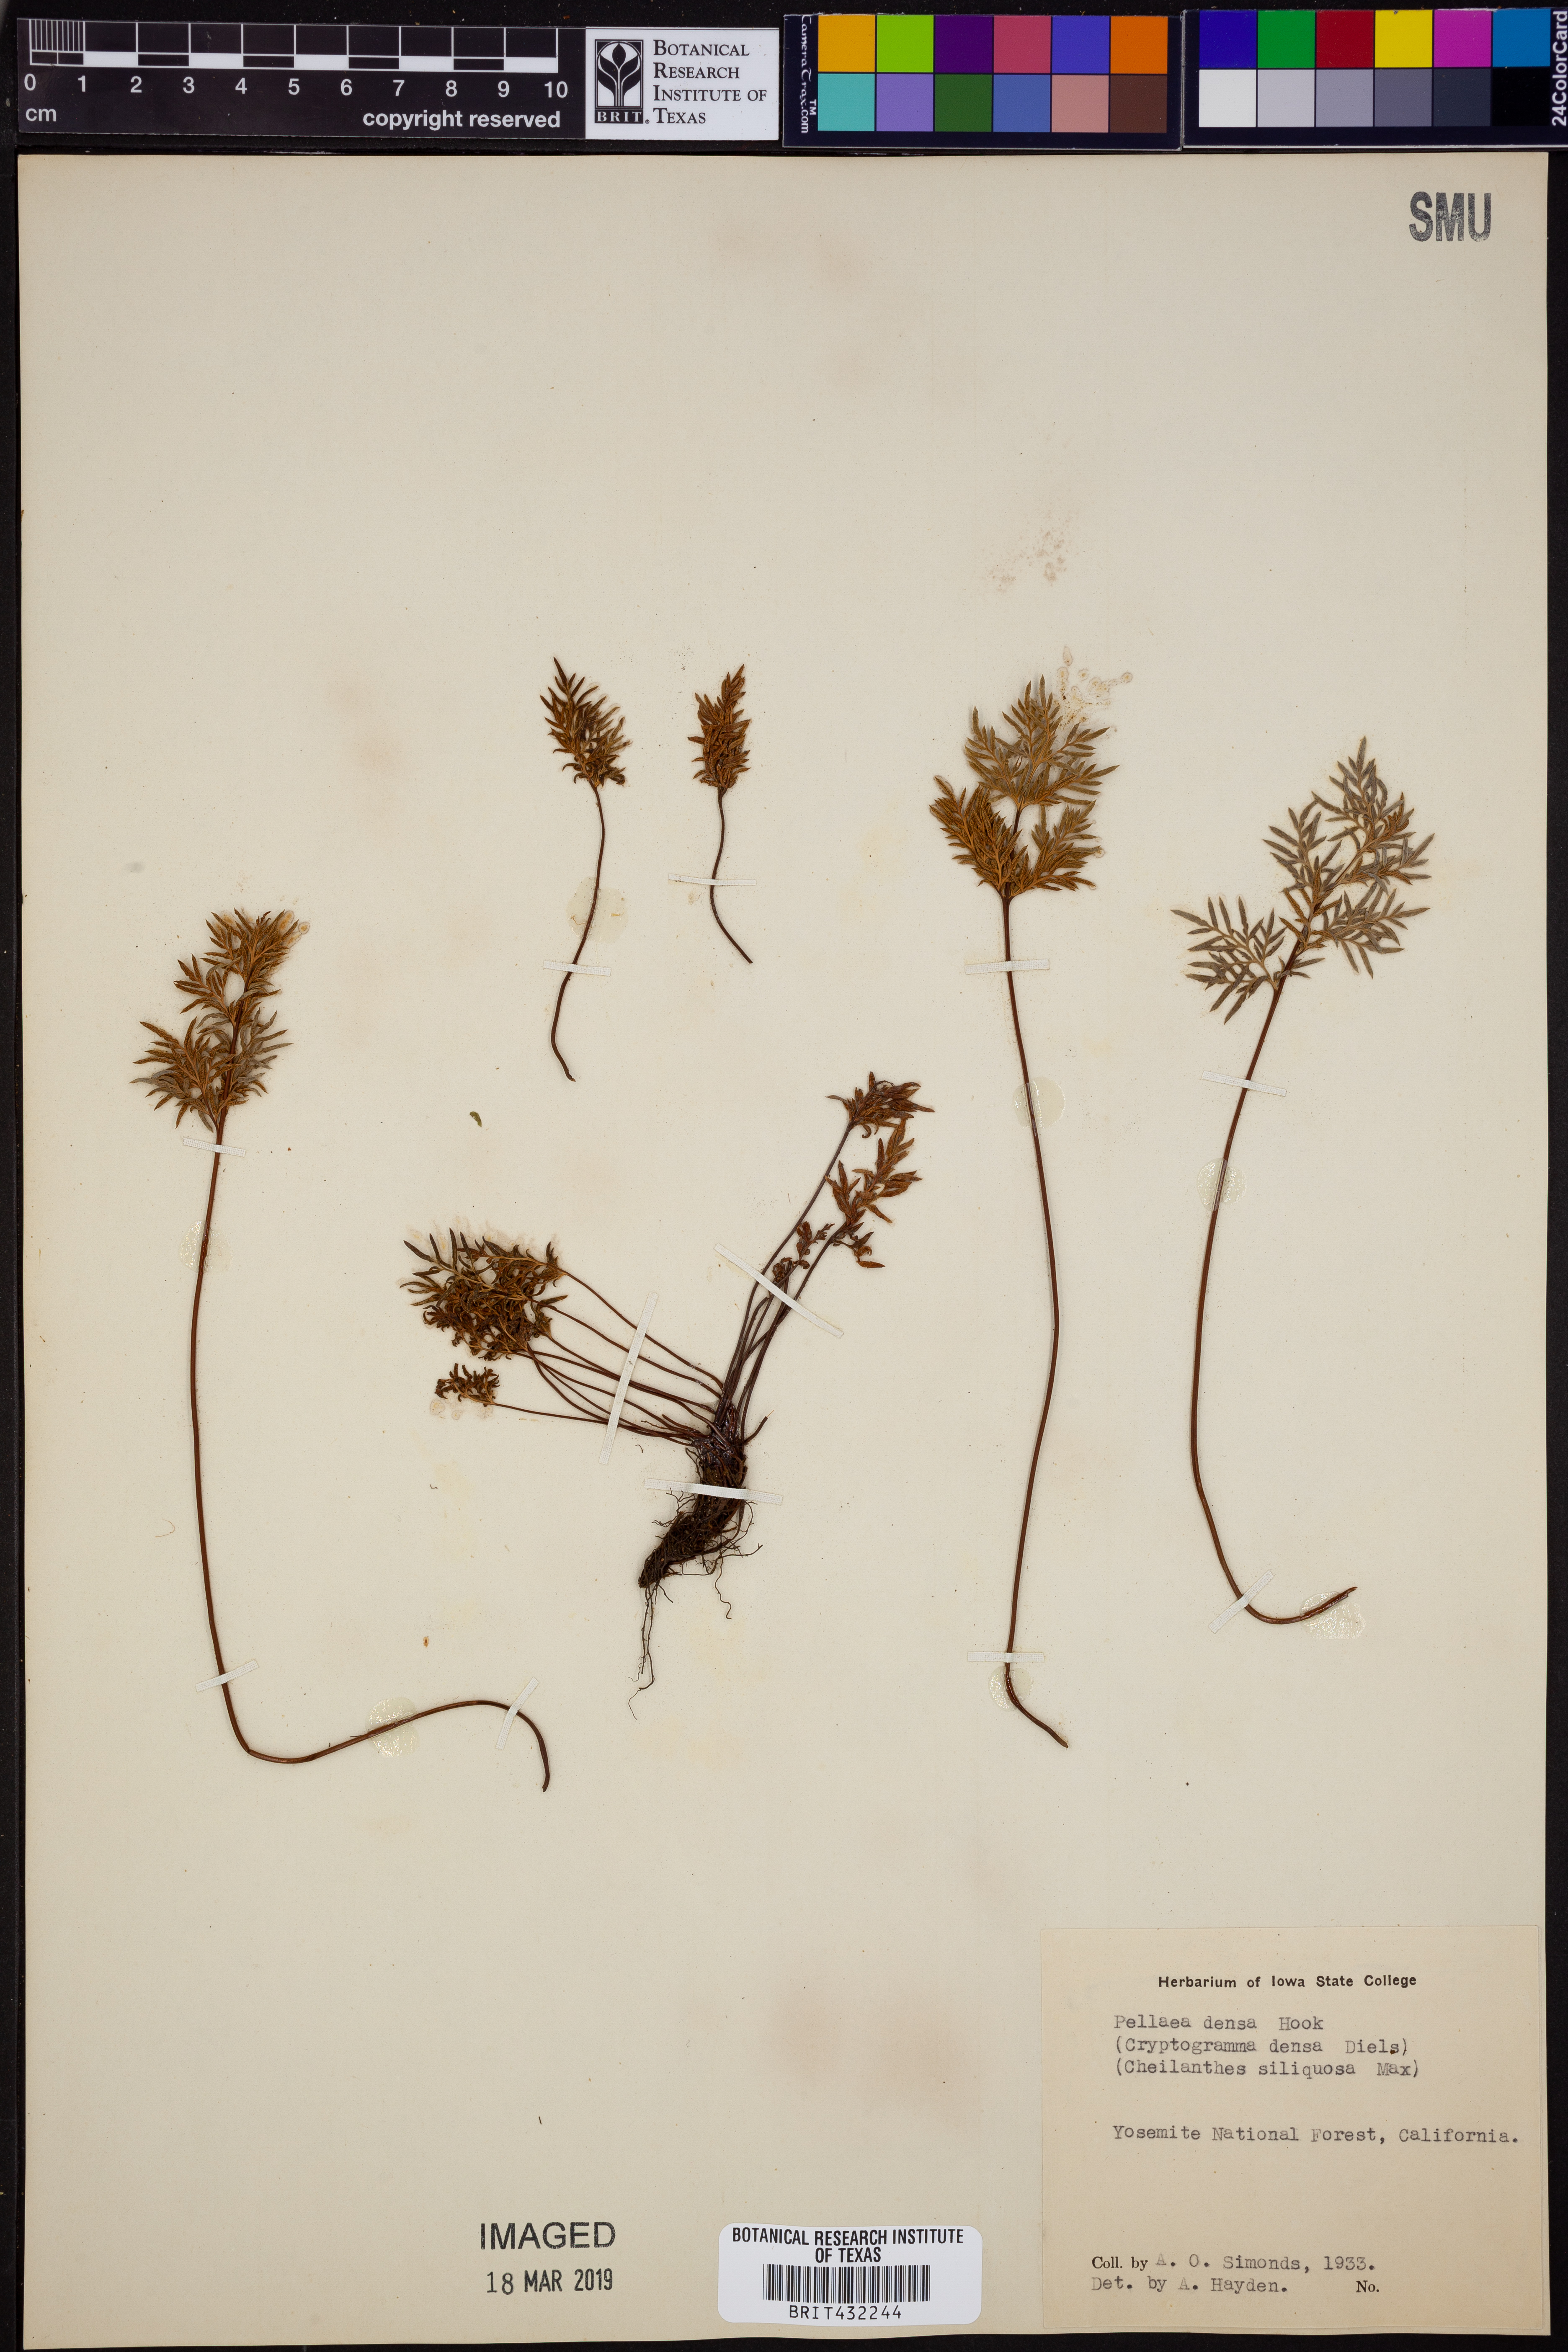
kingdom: Plantae
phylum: Tracheophyta
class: Polypodiopsida
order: Polypodiales
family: Pteridaceae
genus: Aspidotis
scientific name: Aspidotis densa
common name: Indian's dream
